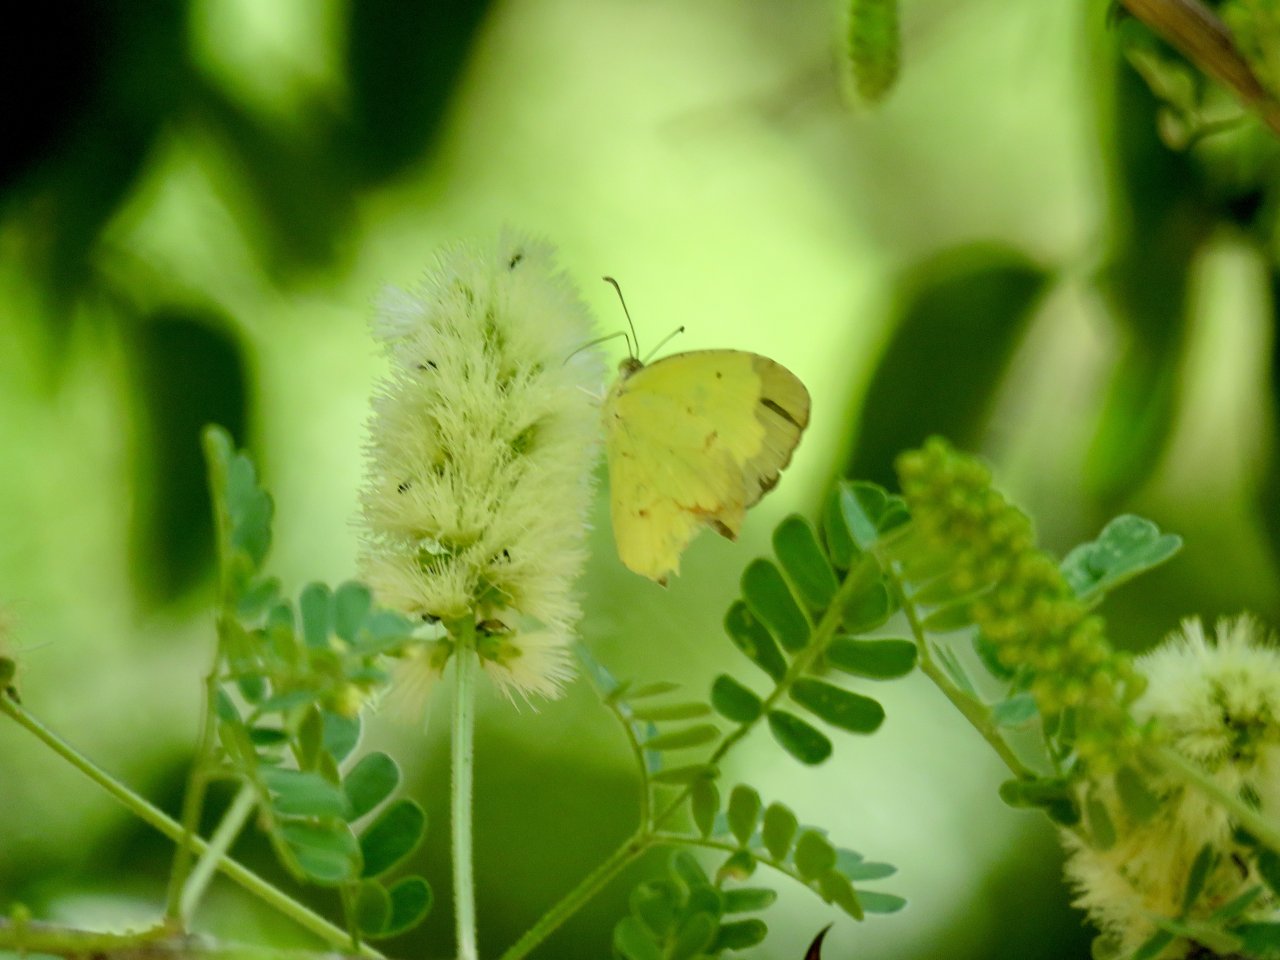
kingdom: Animalia
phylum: Arthropoda
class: Insecta
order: Lepidoptera
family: Pieridae
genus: Eurema
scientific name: Eurema boisduvaliana
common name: Boisduval's Yellow
